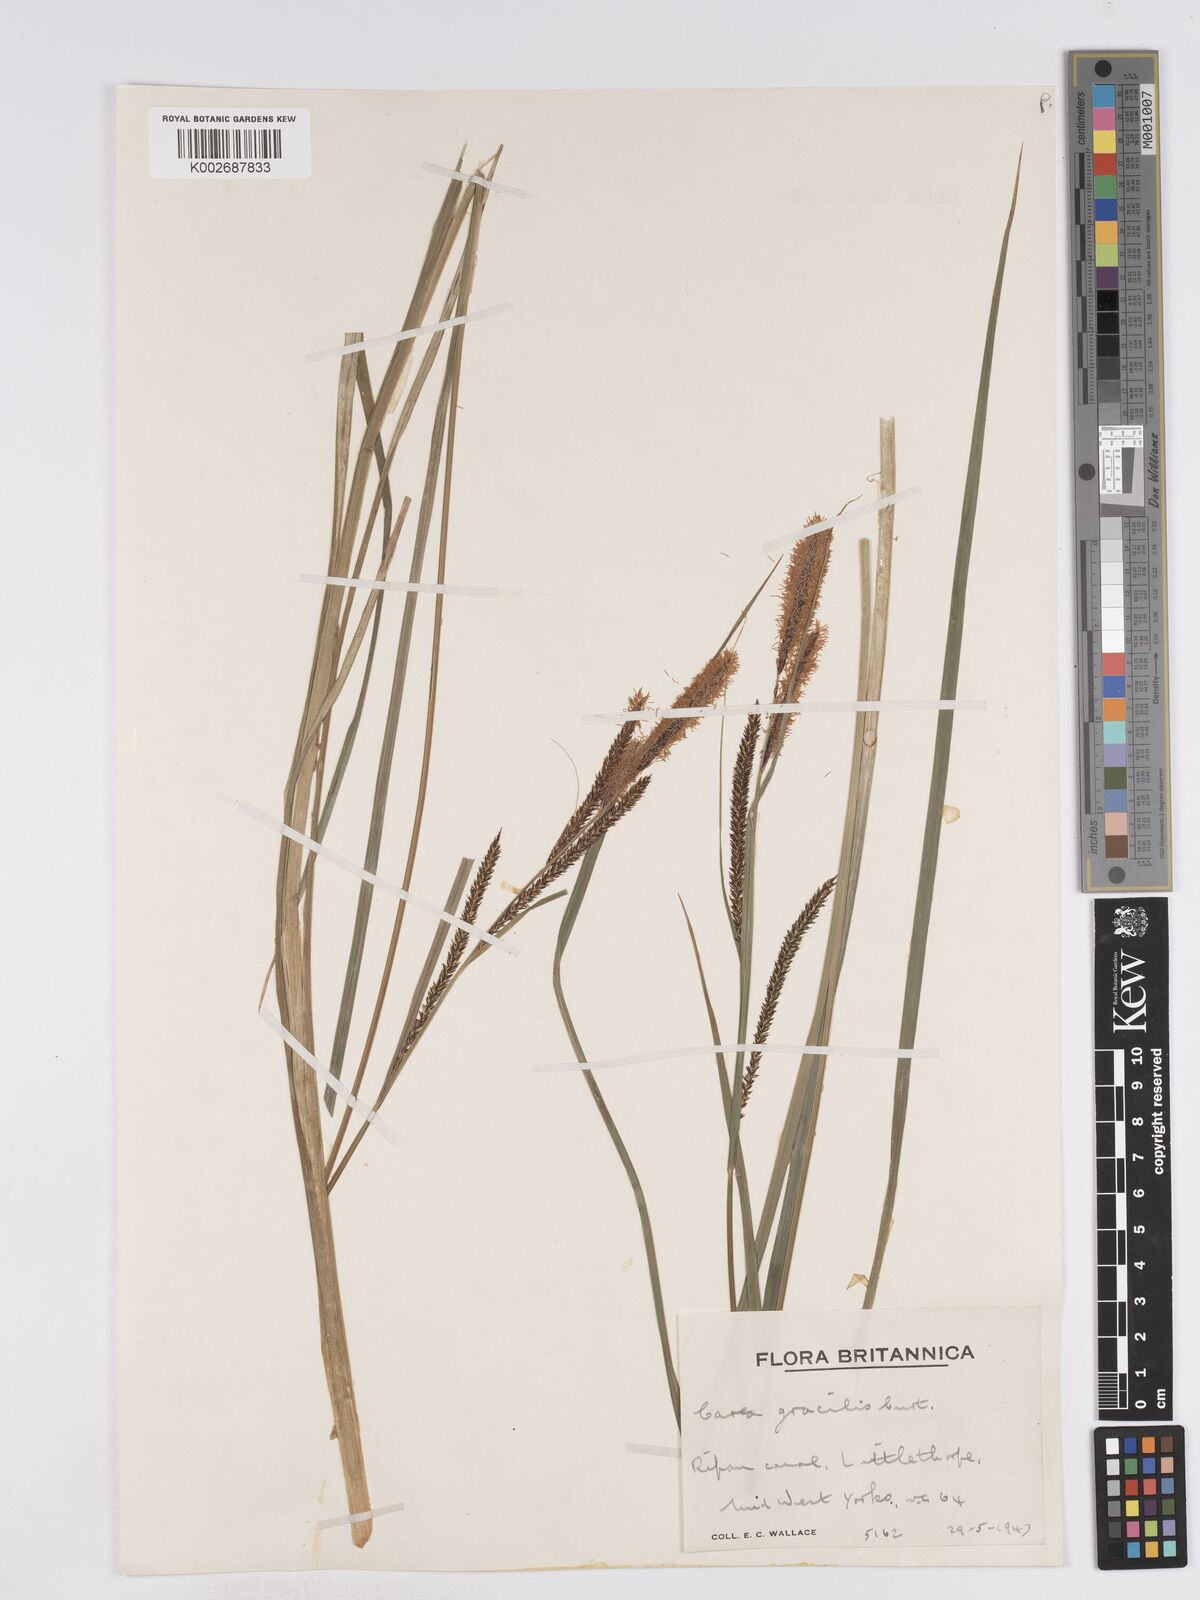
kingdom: Plantae
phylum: Tracheophyta
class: Liliopsida
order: Poales
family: Cyperaceae
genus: Carex
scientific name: Carex acuta
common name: Slender tufted-sedge
